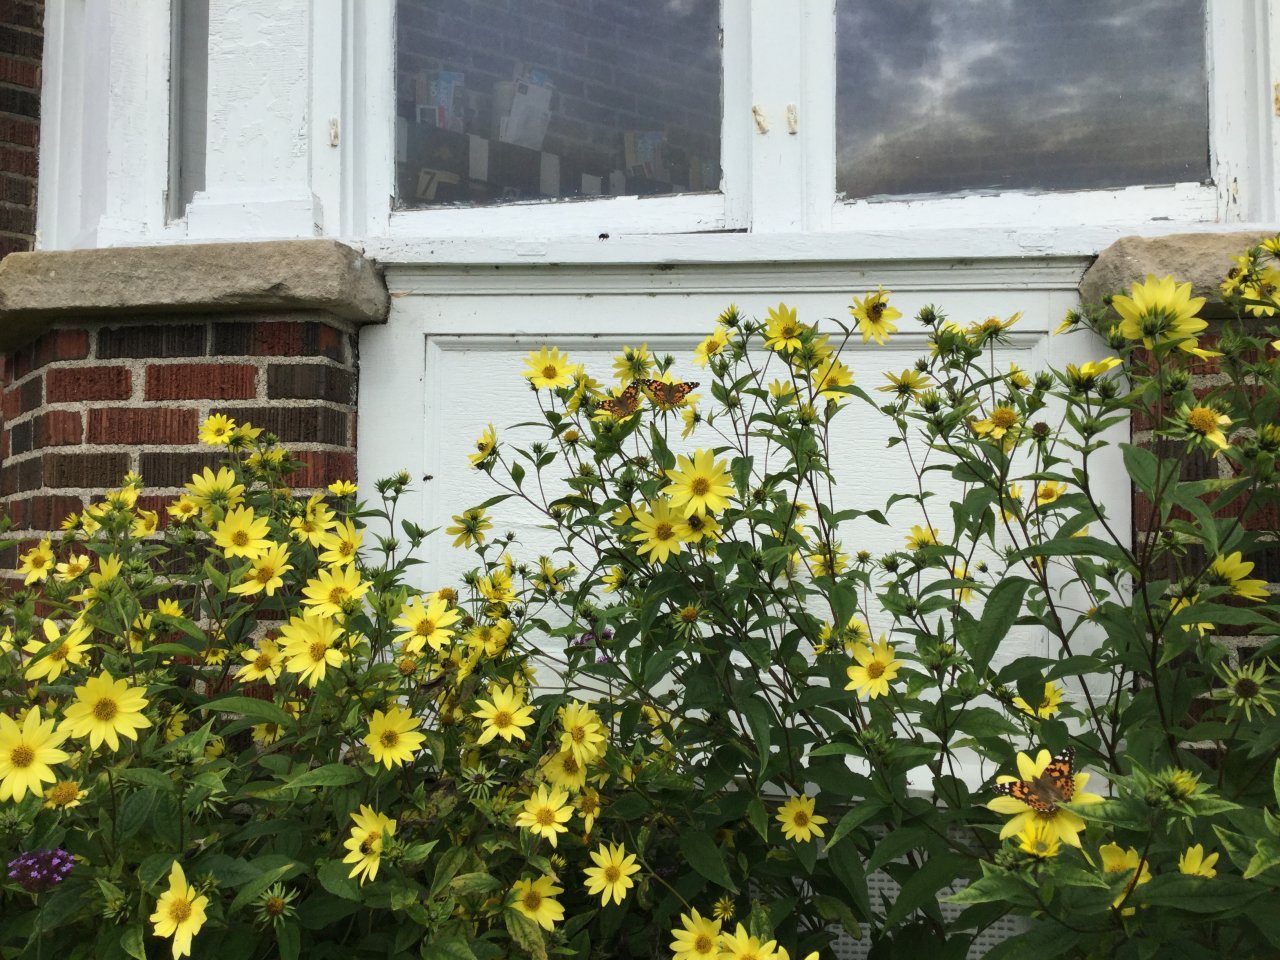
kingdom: Animalia
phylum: Arthropoda
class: Insecta
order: Lepidoptera
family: Nymphalidae
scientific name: Nymphalidae
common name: Brushfoots
